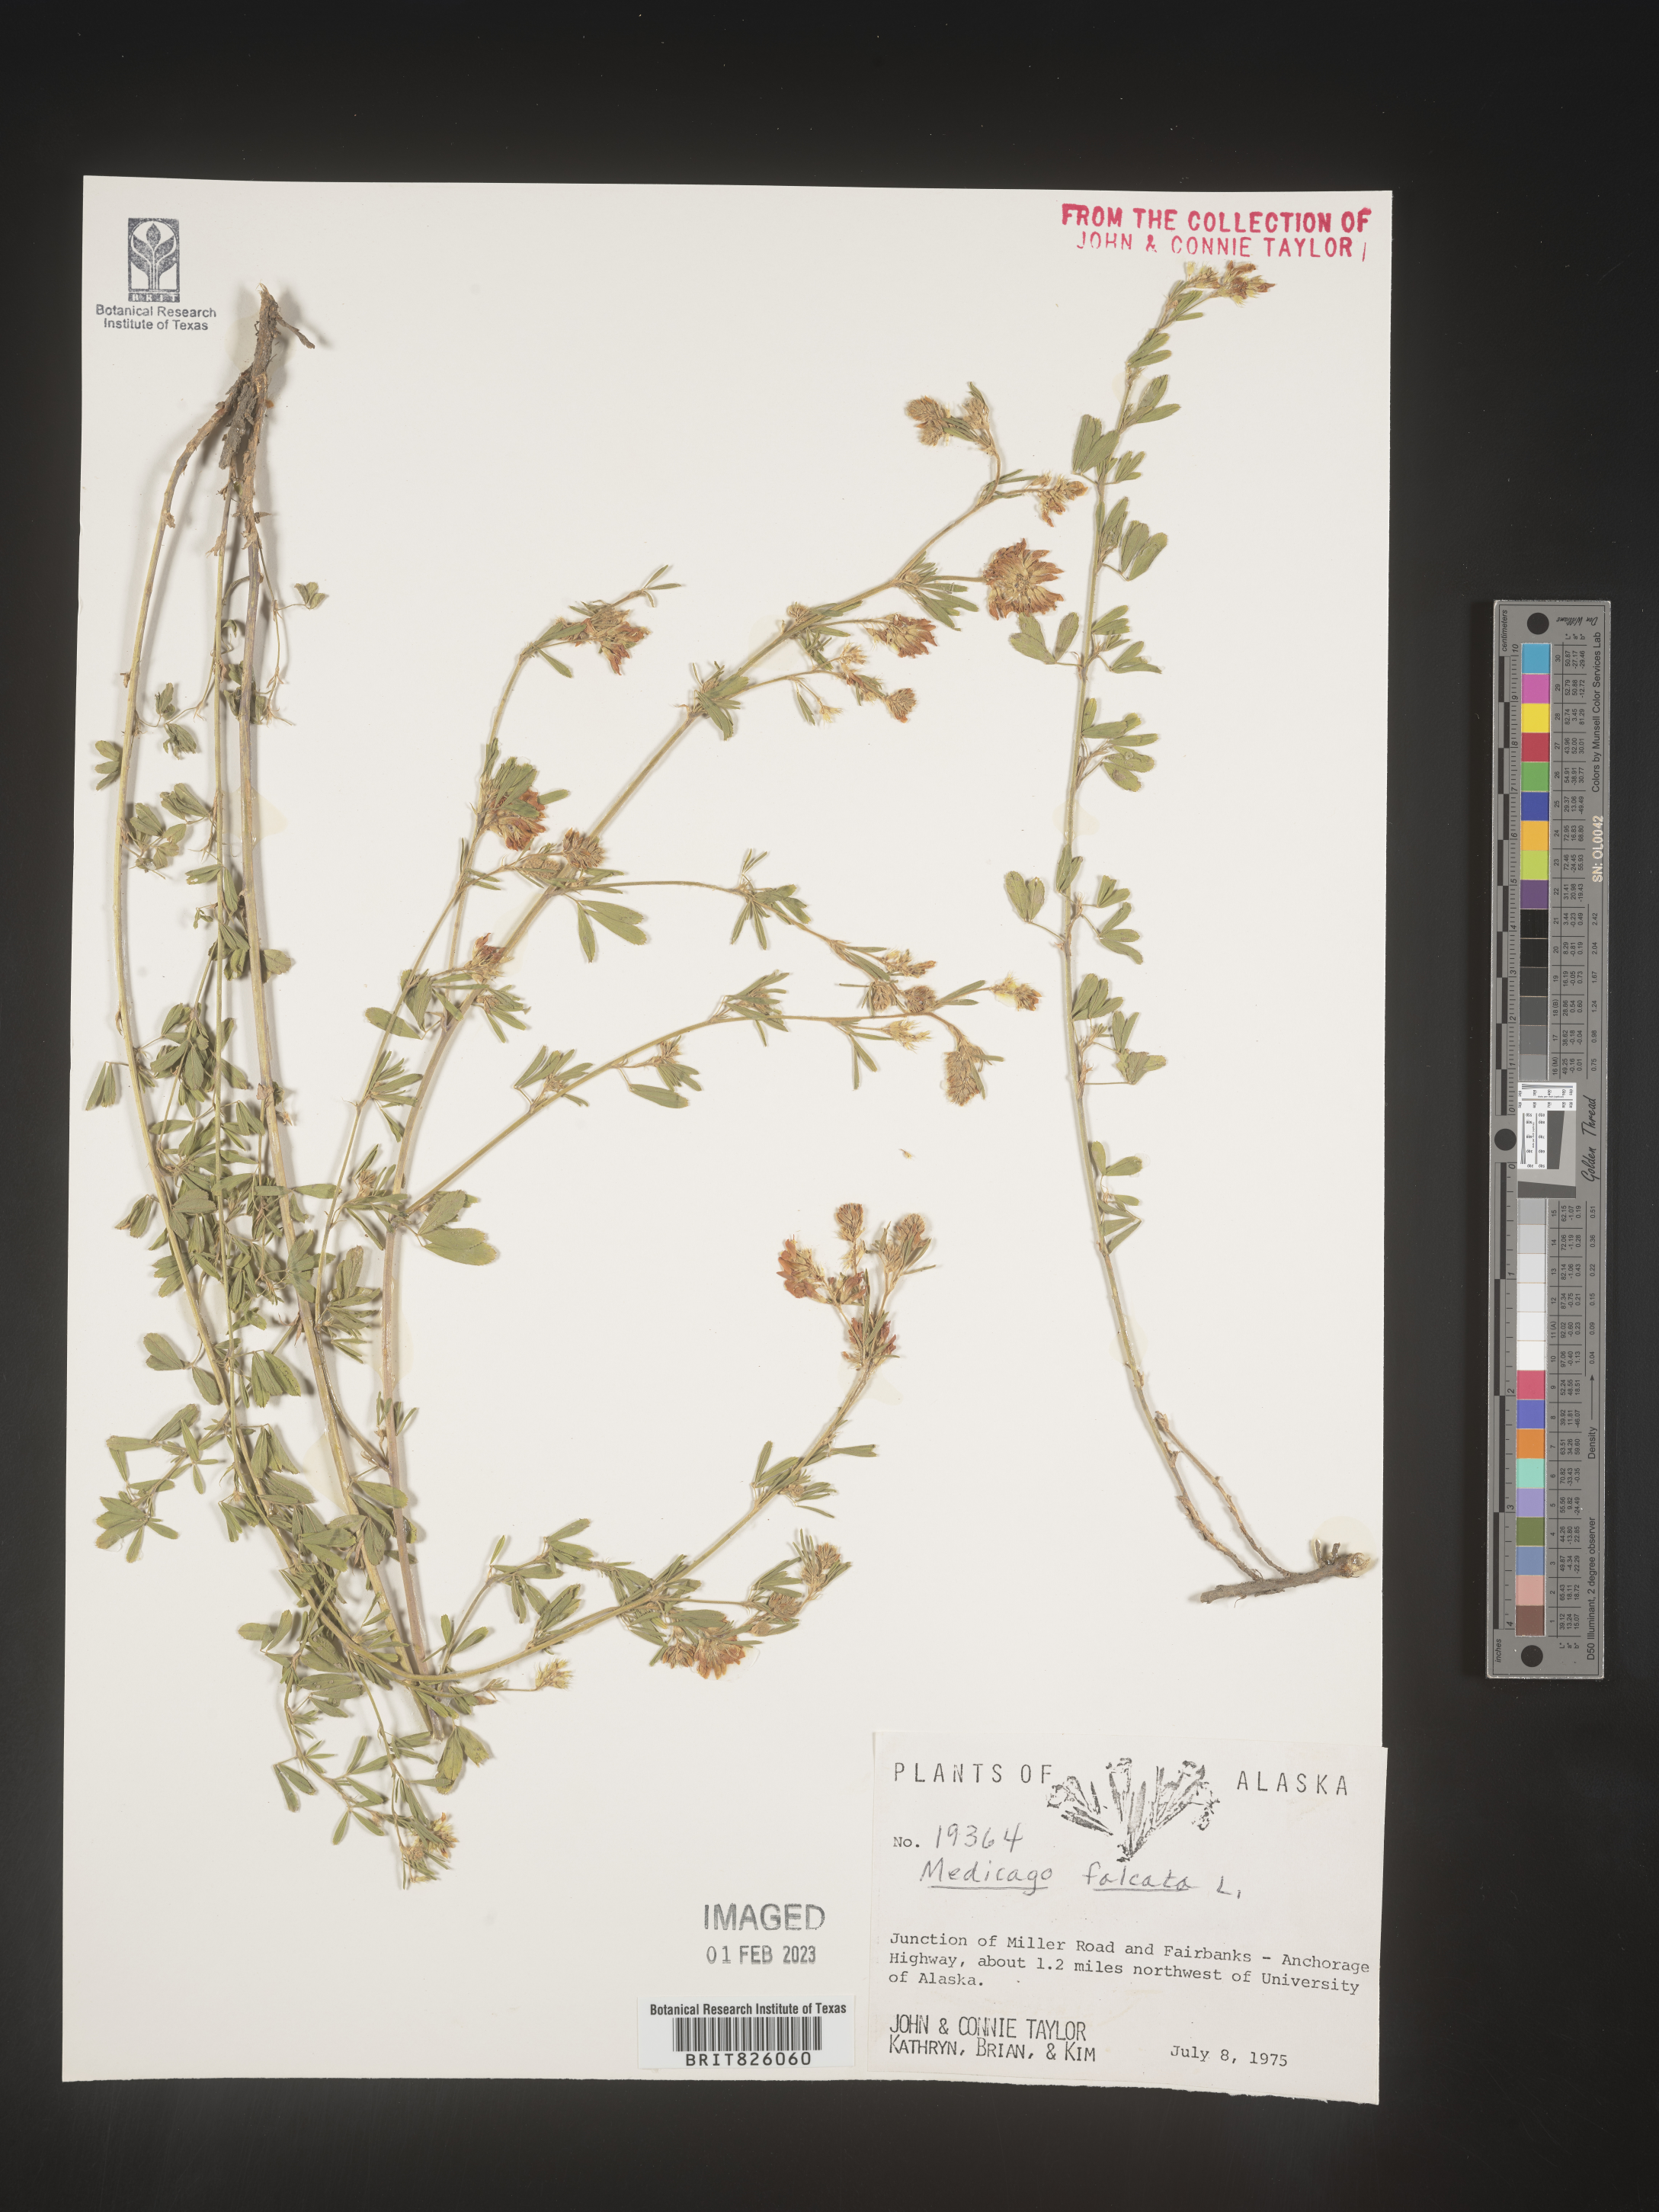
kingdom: Plantae
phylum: Tracheophyta
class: Magnoliopsida
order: Fabales
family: Fabaceae
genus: Medicago
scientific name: Medicago sativa
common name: Alfalfa
